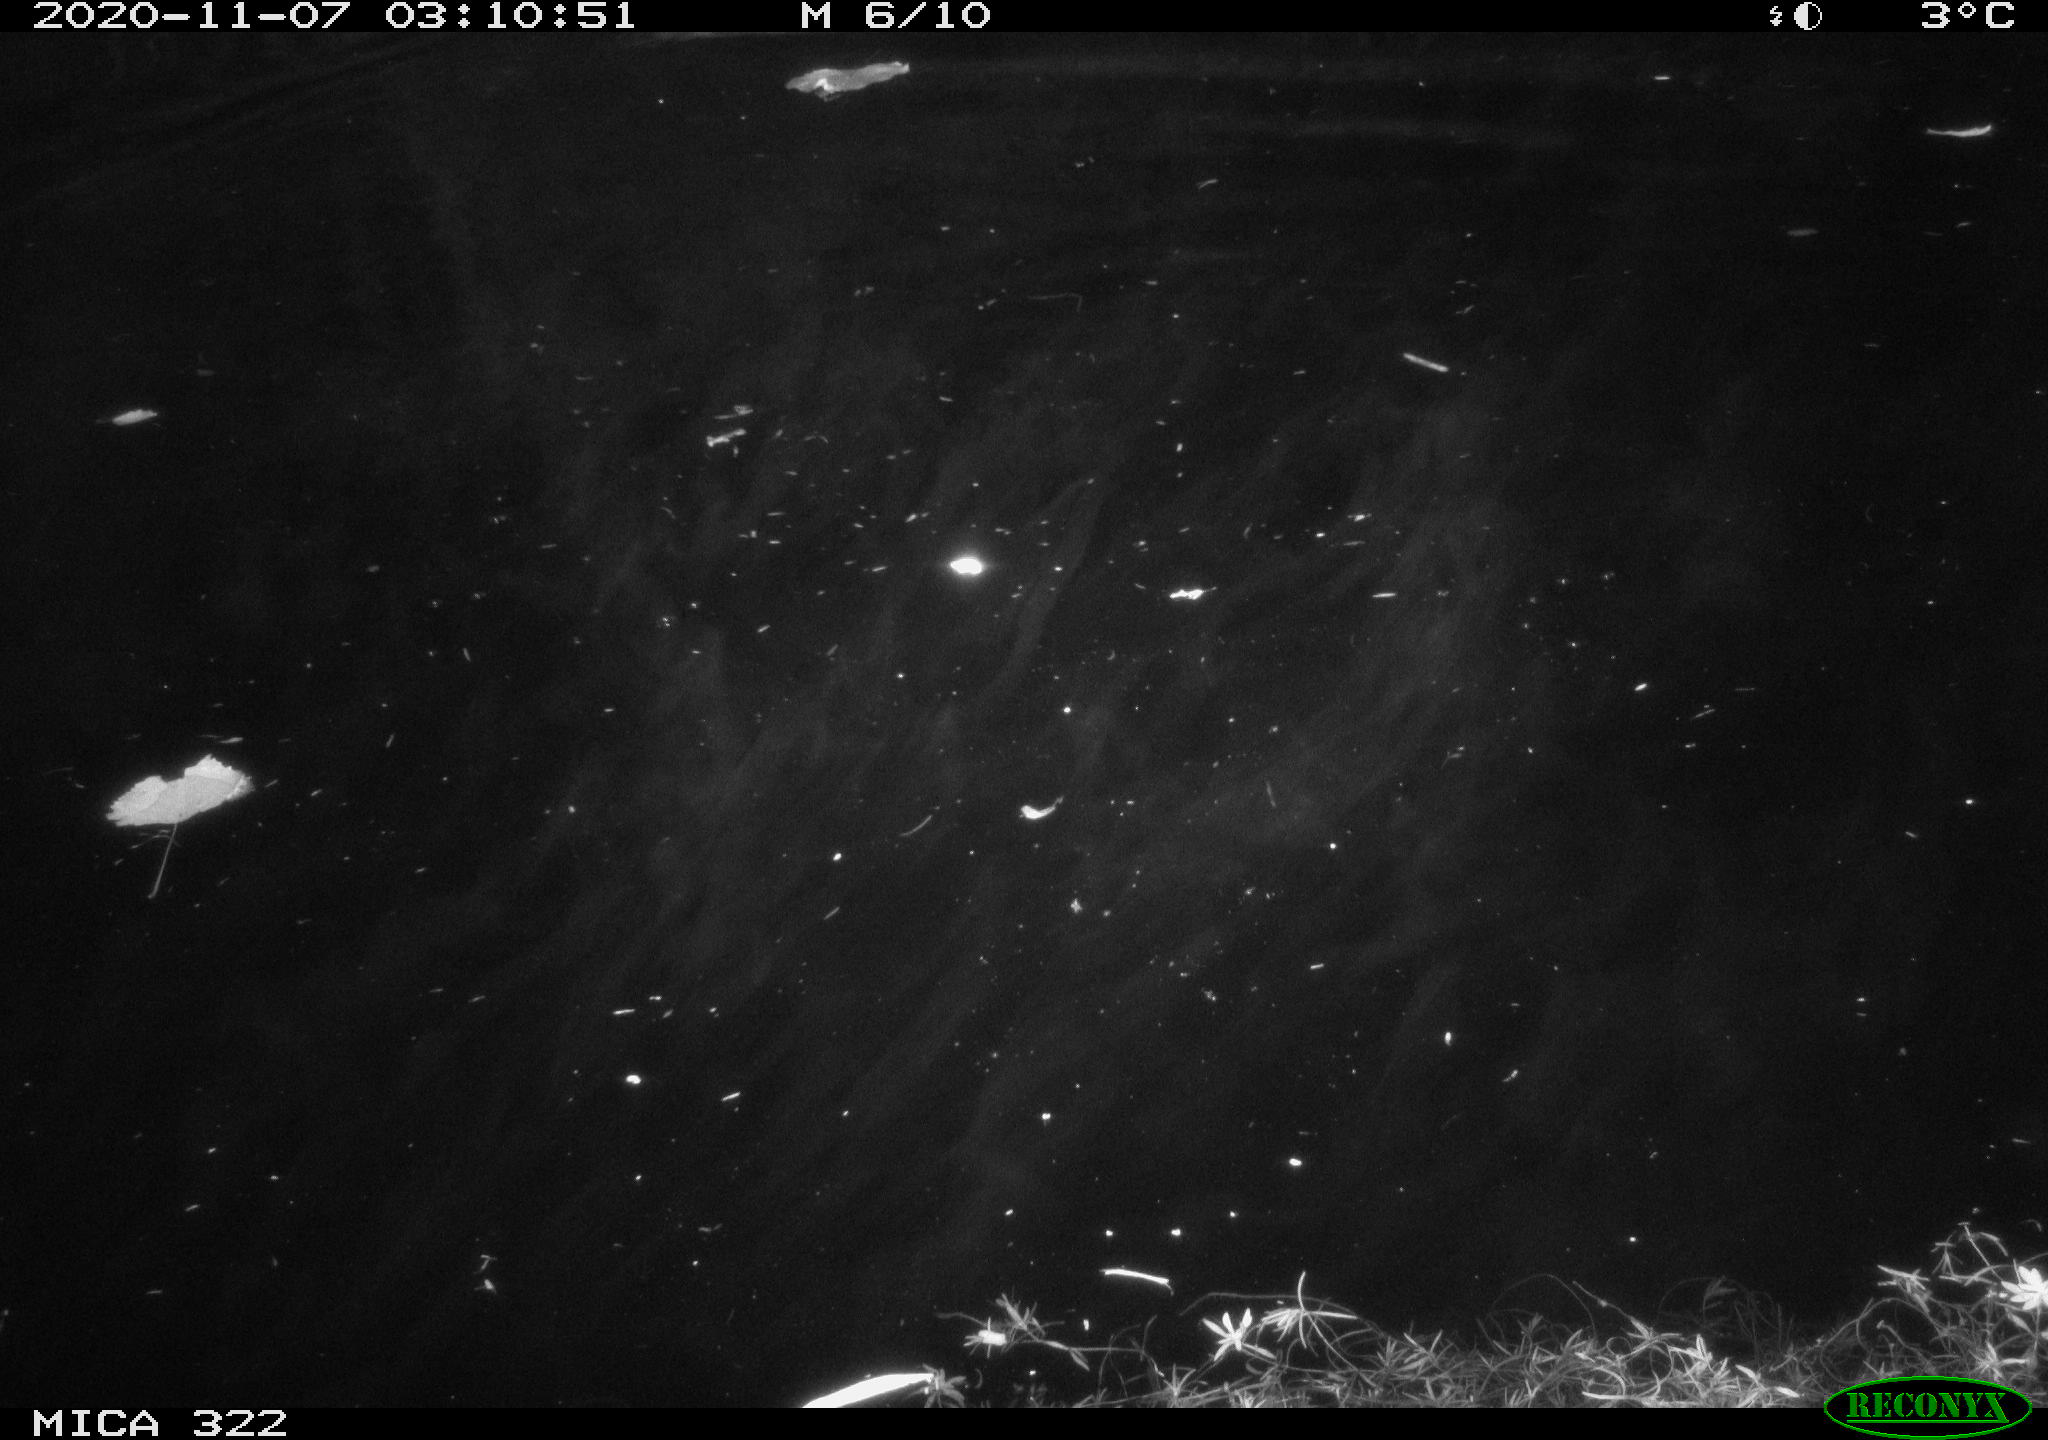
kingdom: Animalia
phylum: Chordata
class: Aves
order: Anseriformes
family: Anatidae
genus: Mareca
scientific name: Mareca strepera
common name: Gadwall
